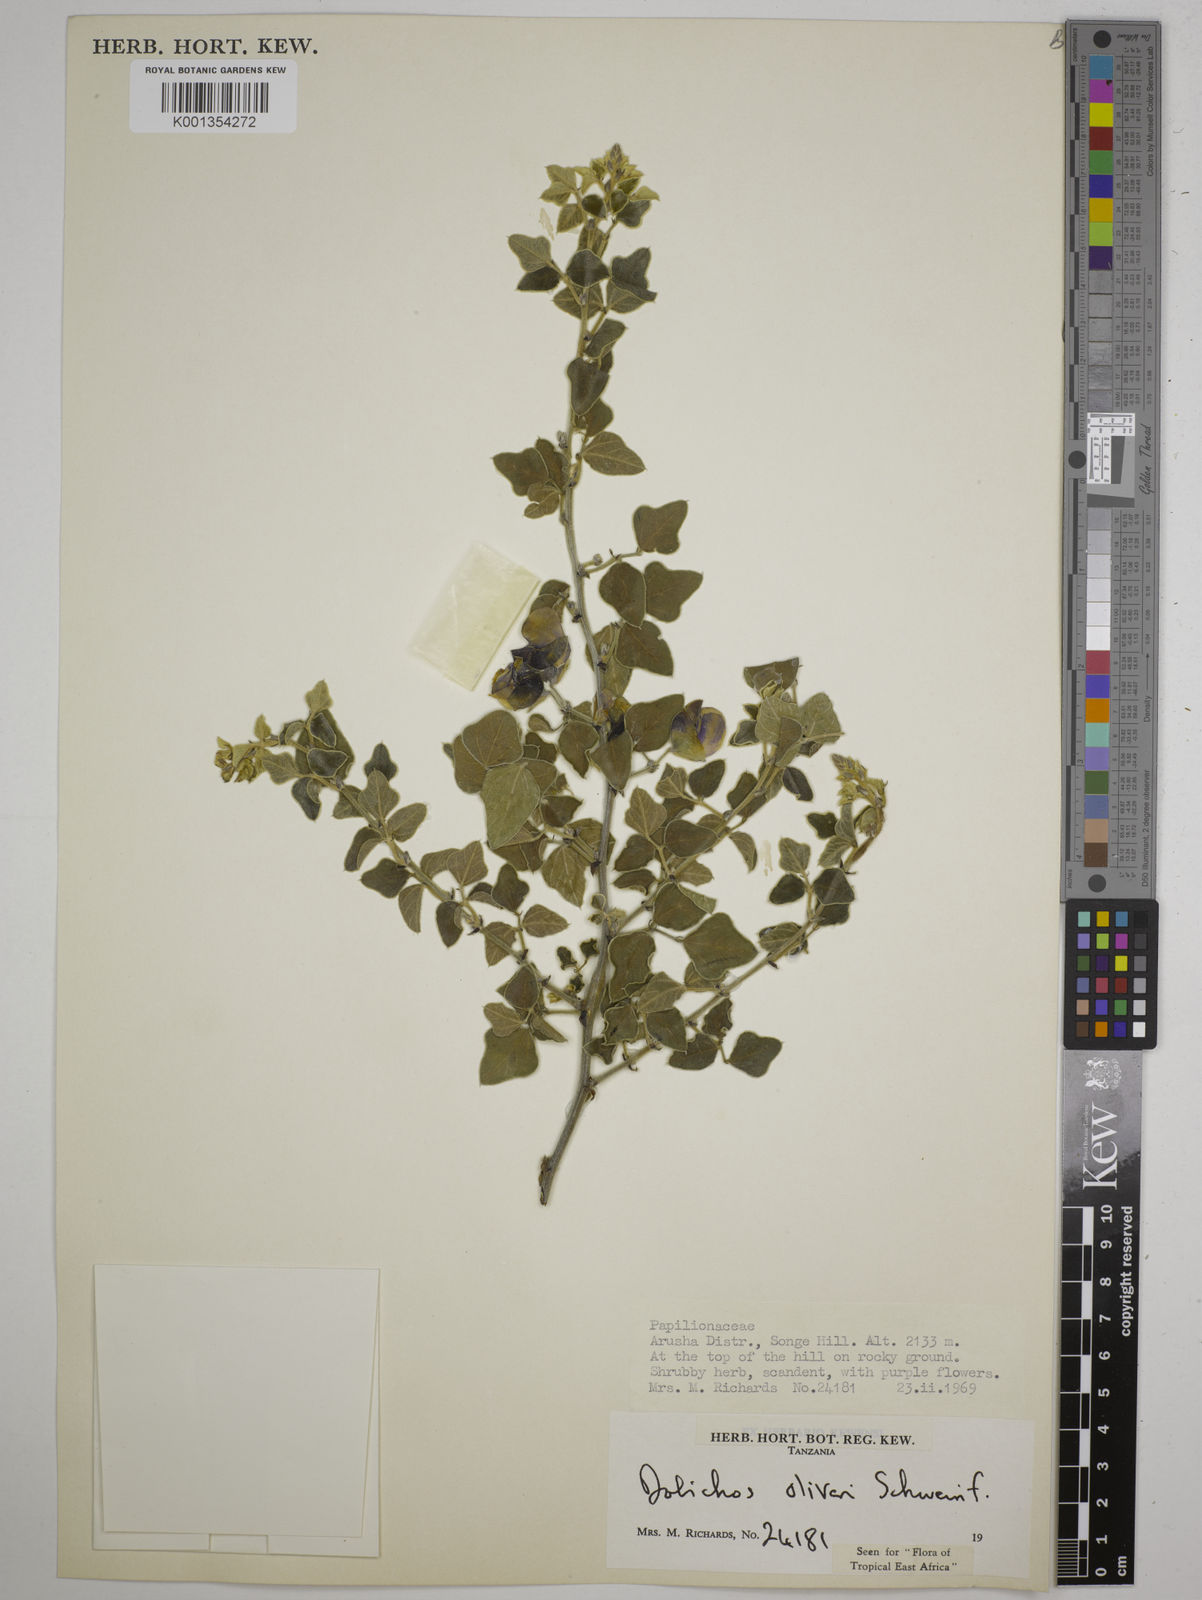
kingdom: Plantae
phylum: Tracheophyta
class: Magnoliopsida
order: Fabales
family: Fabaceae
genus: Dolichos
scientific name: Dolichos oliveri
